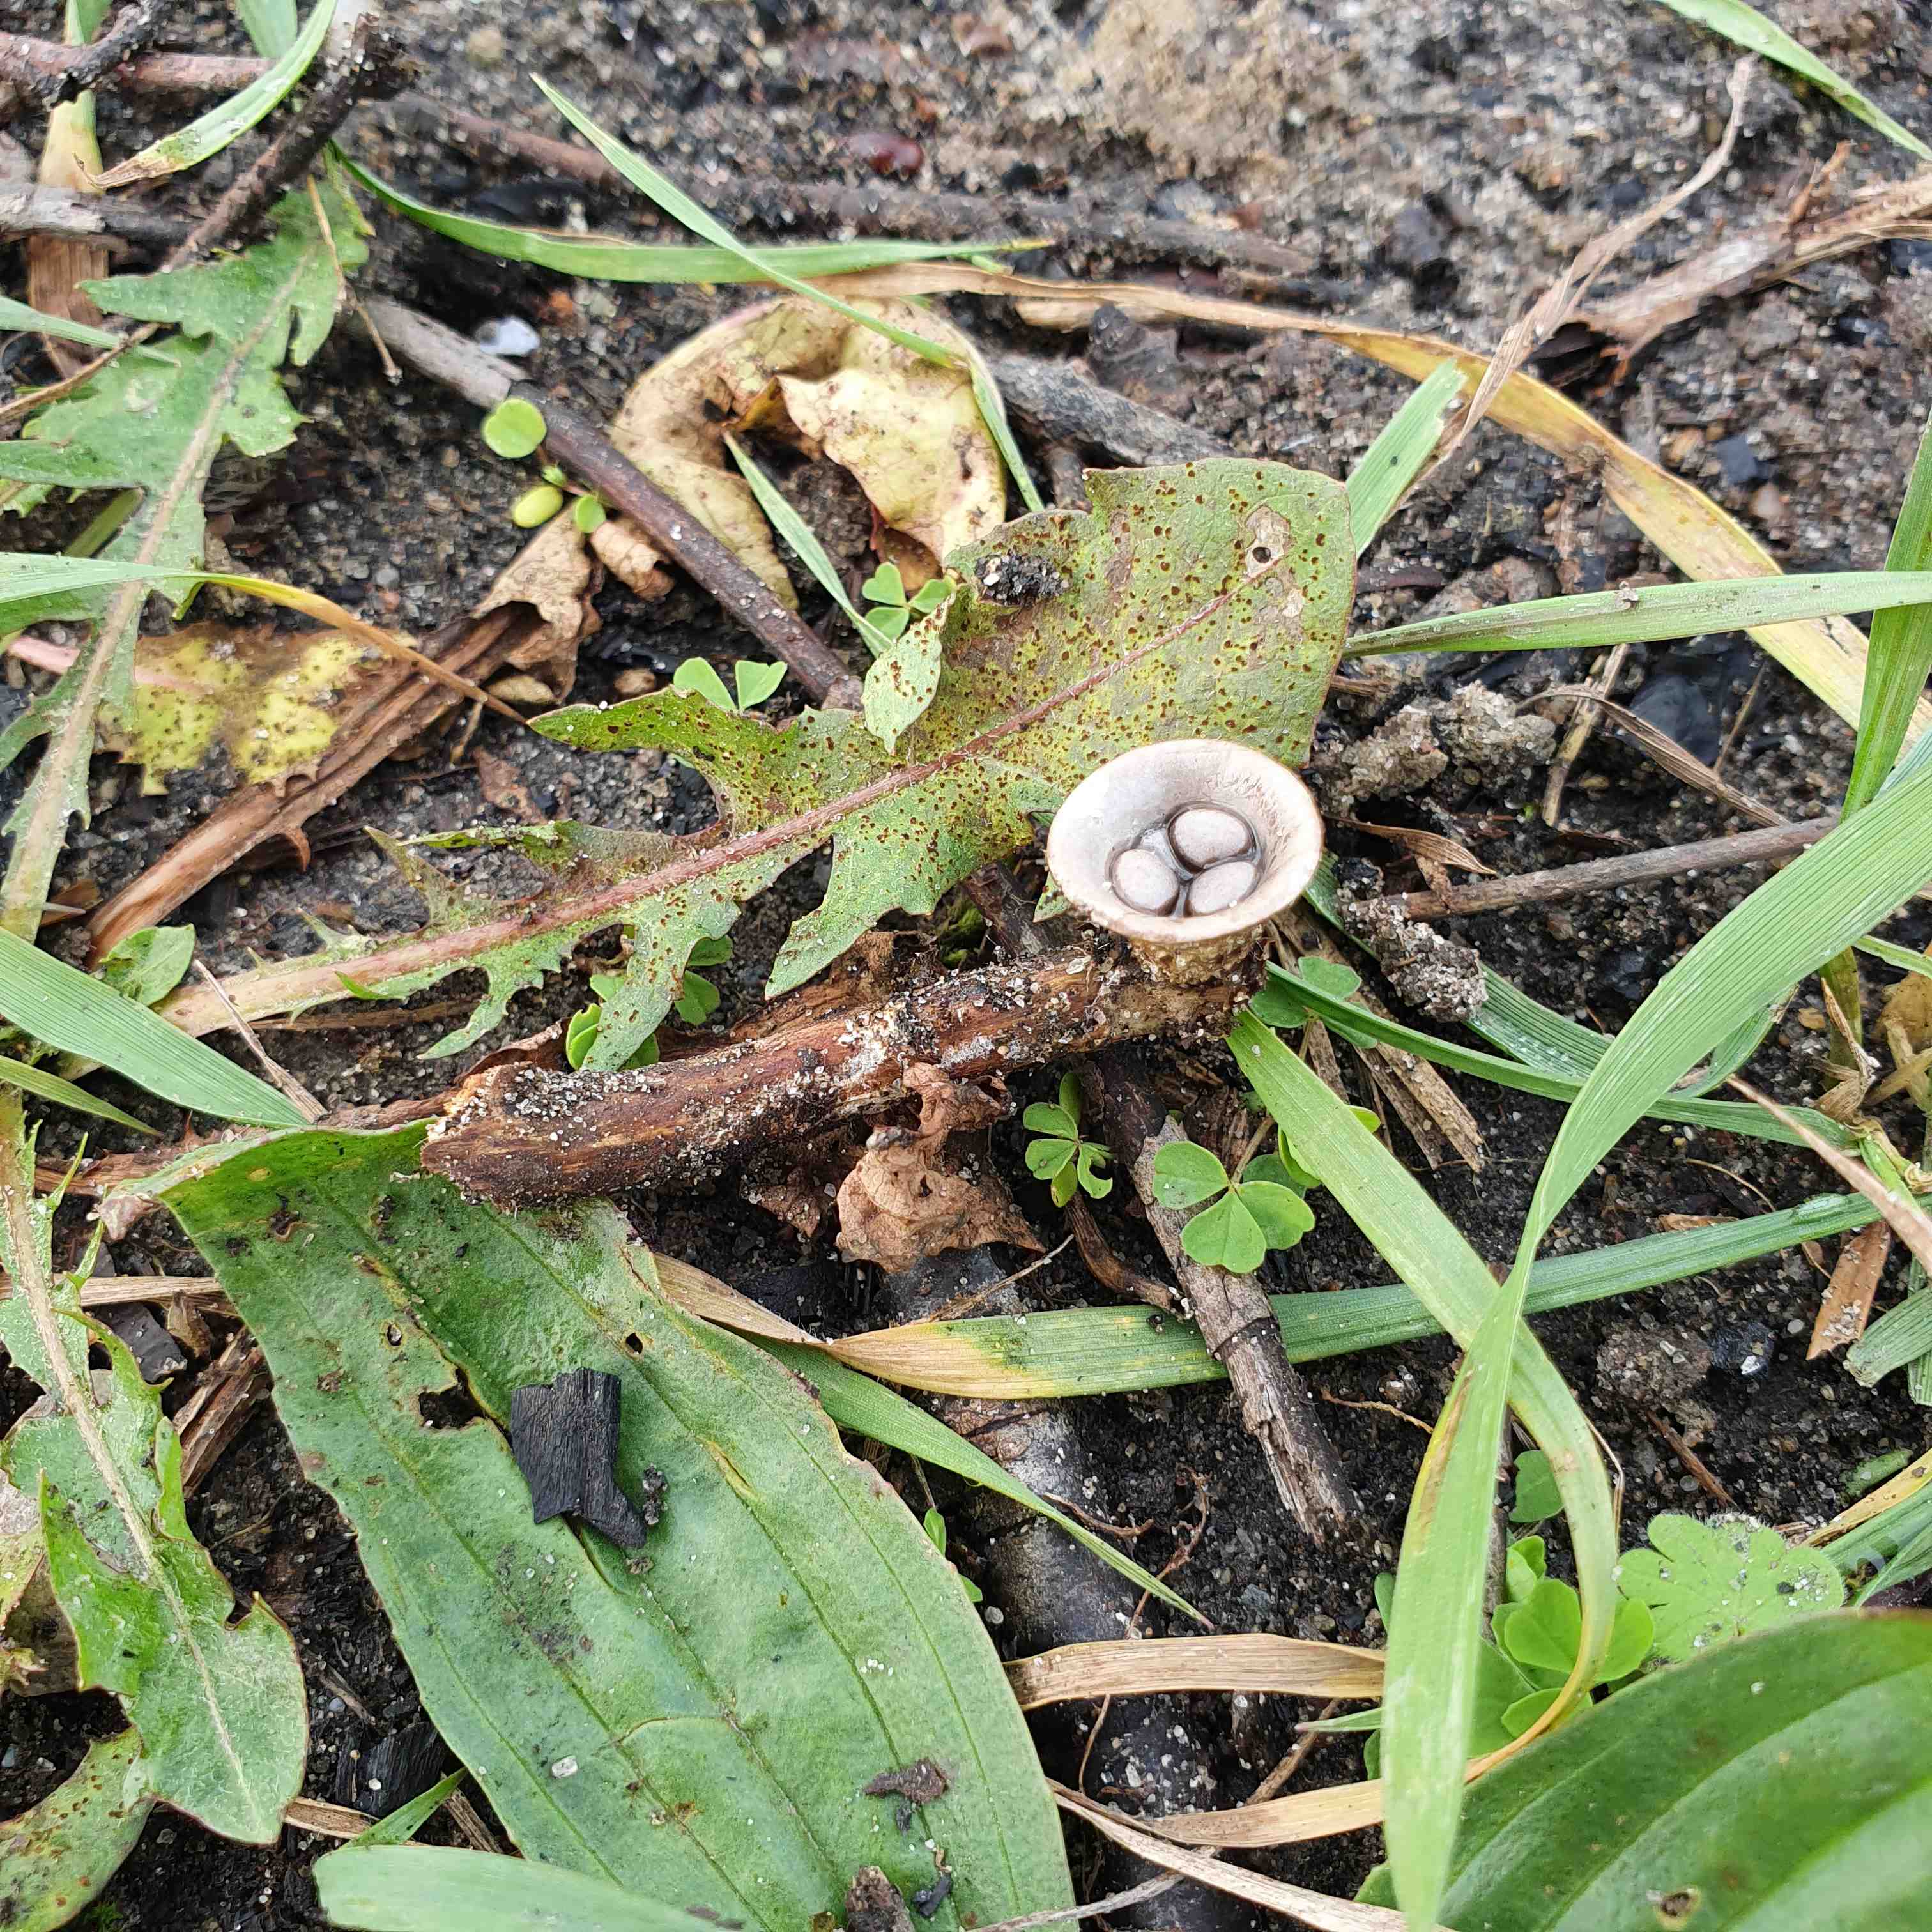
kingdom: Fungi
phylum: Basidiomycota
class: Agaricomycetes
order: Agaricales
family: Agaricaceae
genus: Cyathus
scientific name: Cyathus olla
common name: klokke-redesvamp
